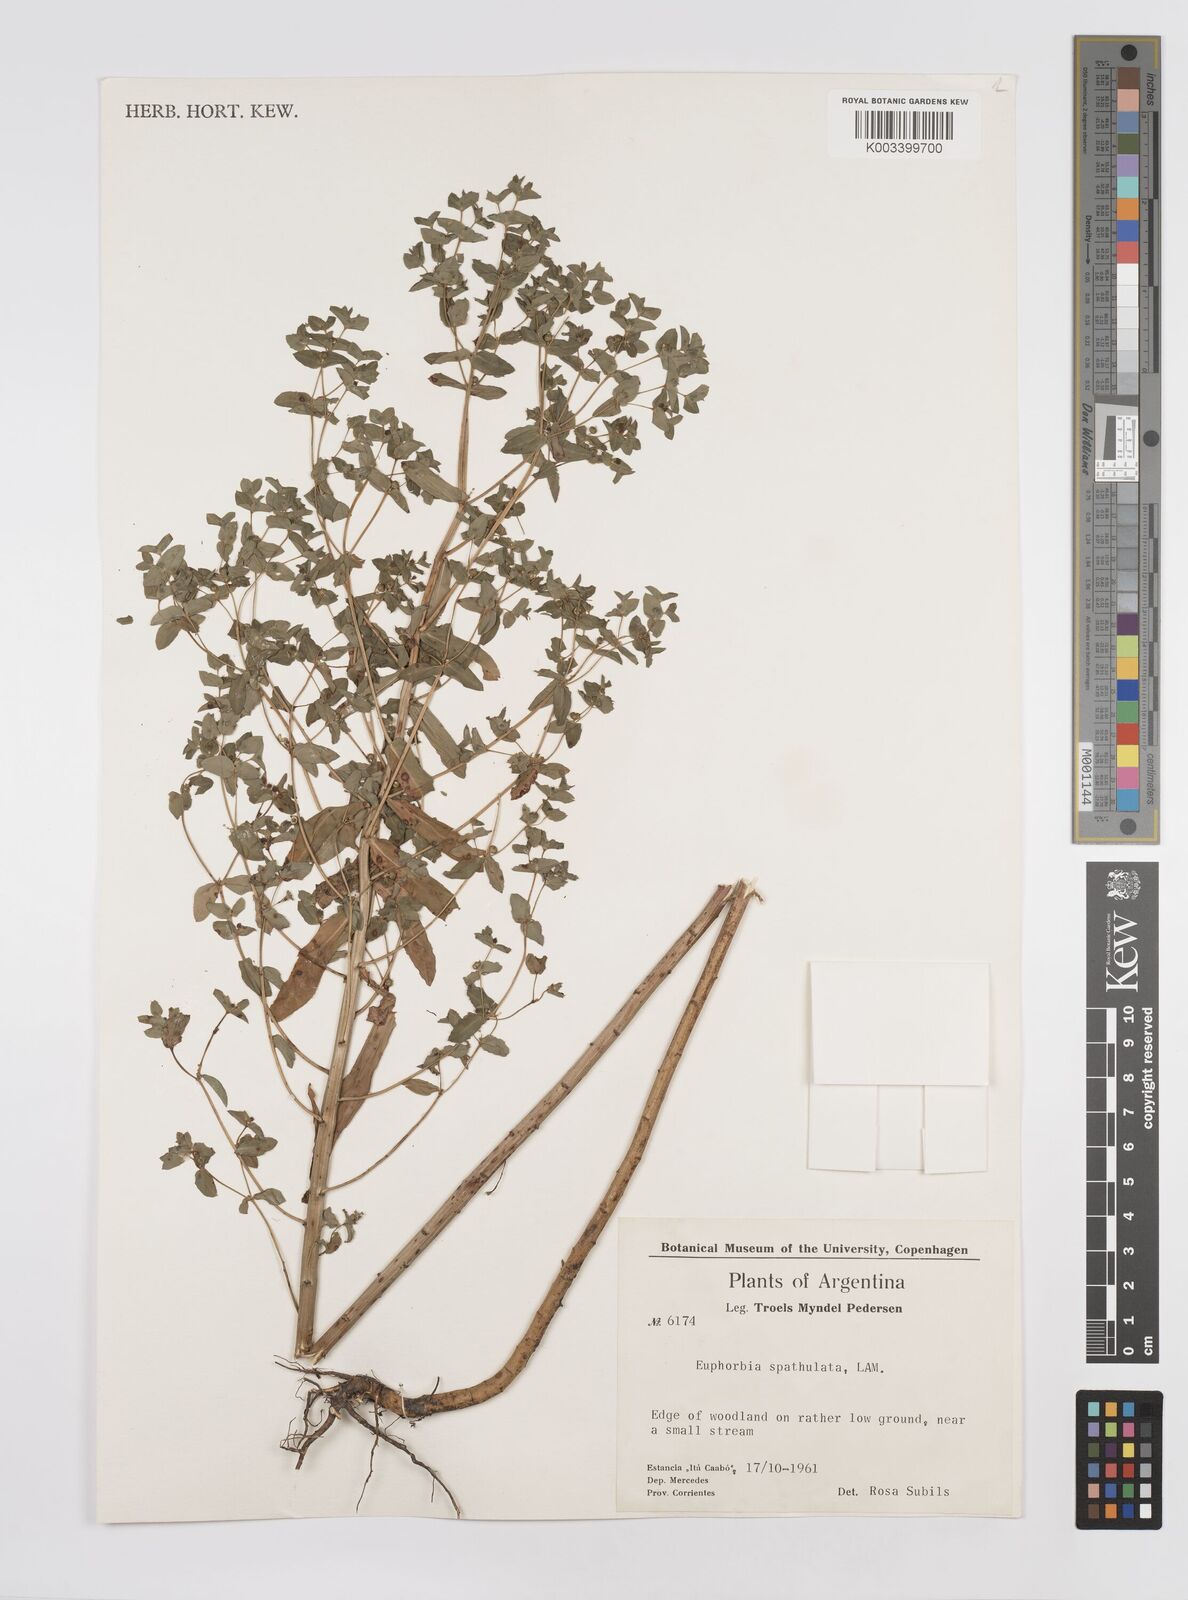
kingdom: Plantae
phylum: Tracheophyta
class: Magnoliopsida
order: Malpighiales
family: Euphorbiaceae
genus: Euphorbia
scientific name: Euphorbia spathulata
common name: Blunt spurge
